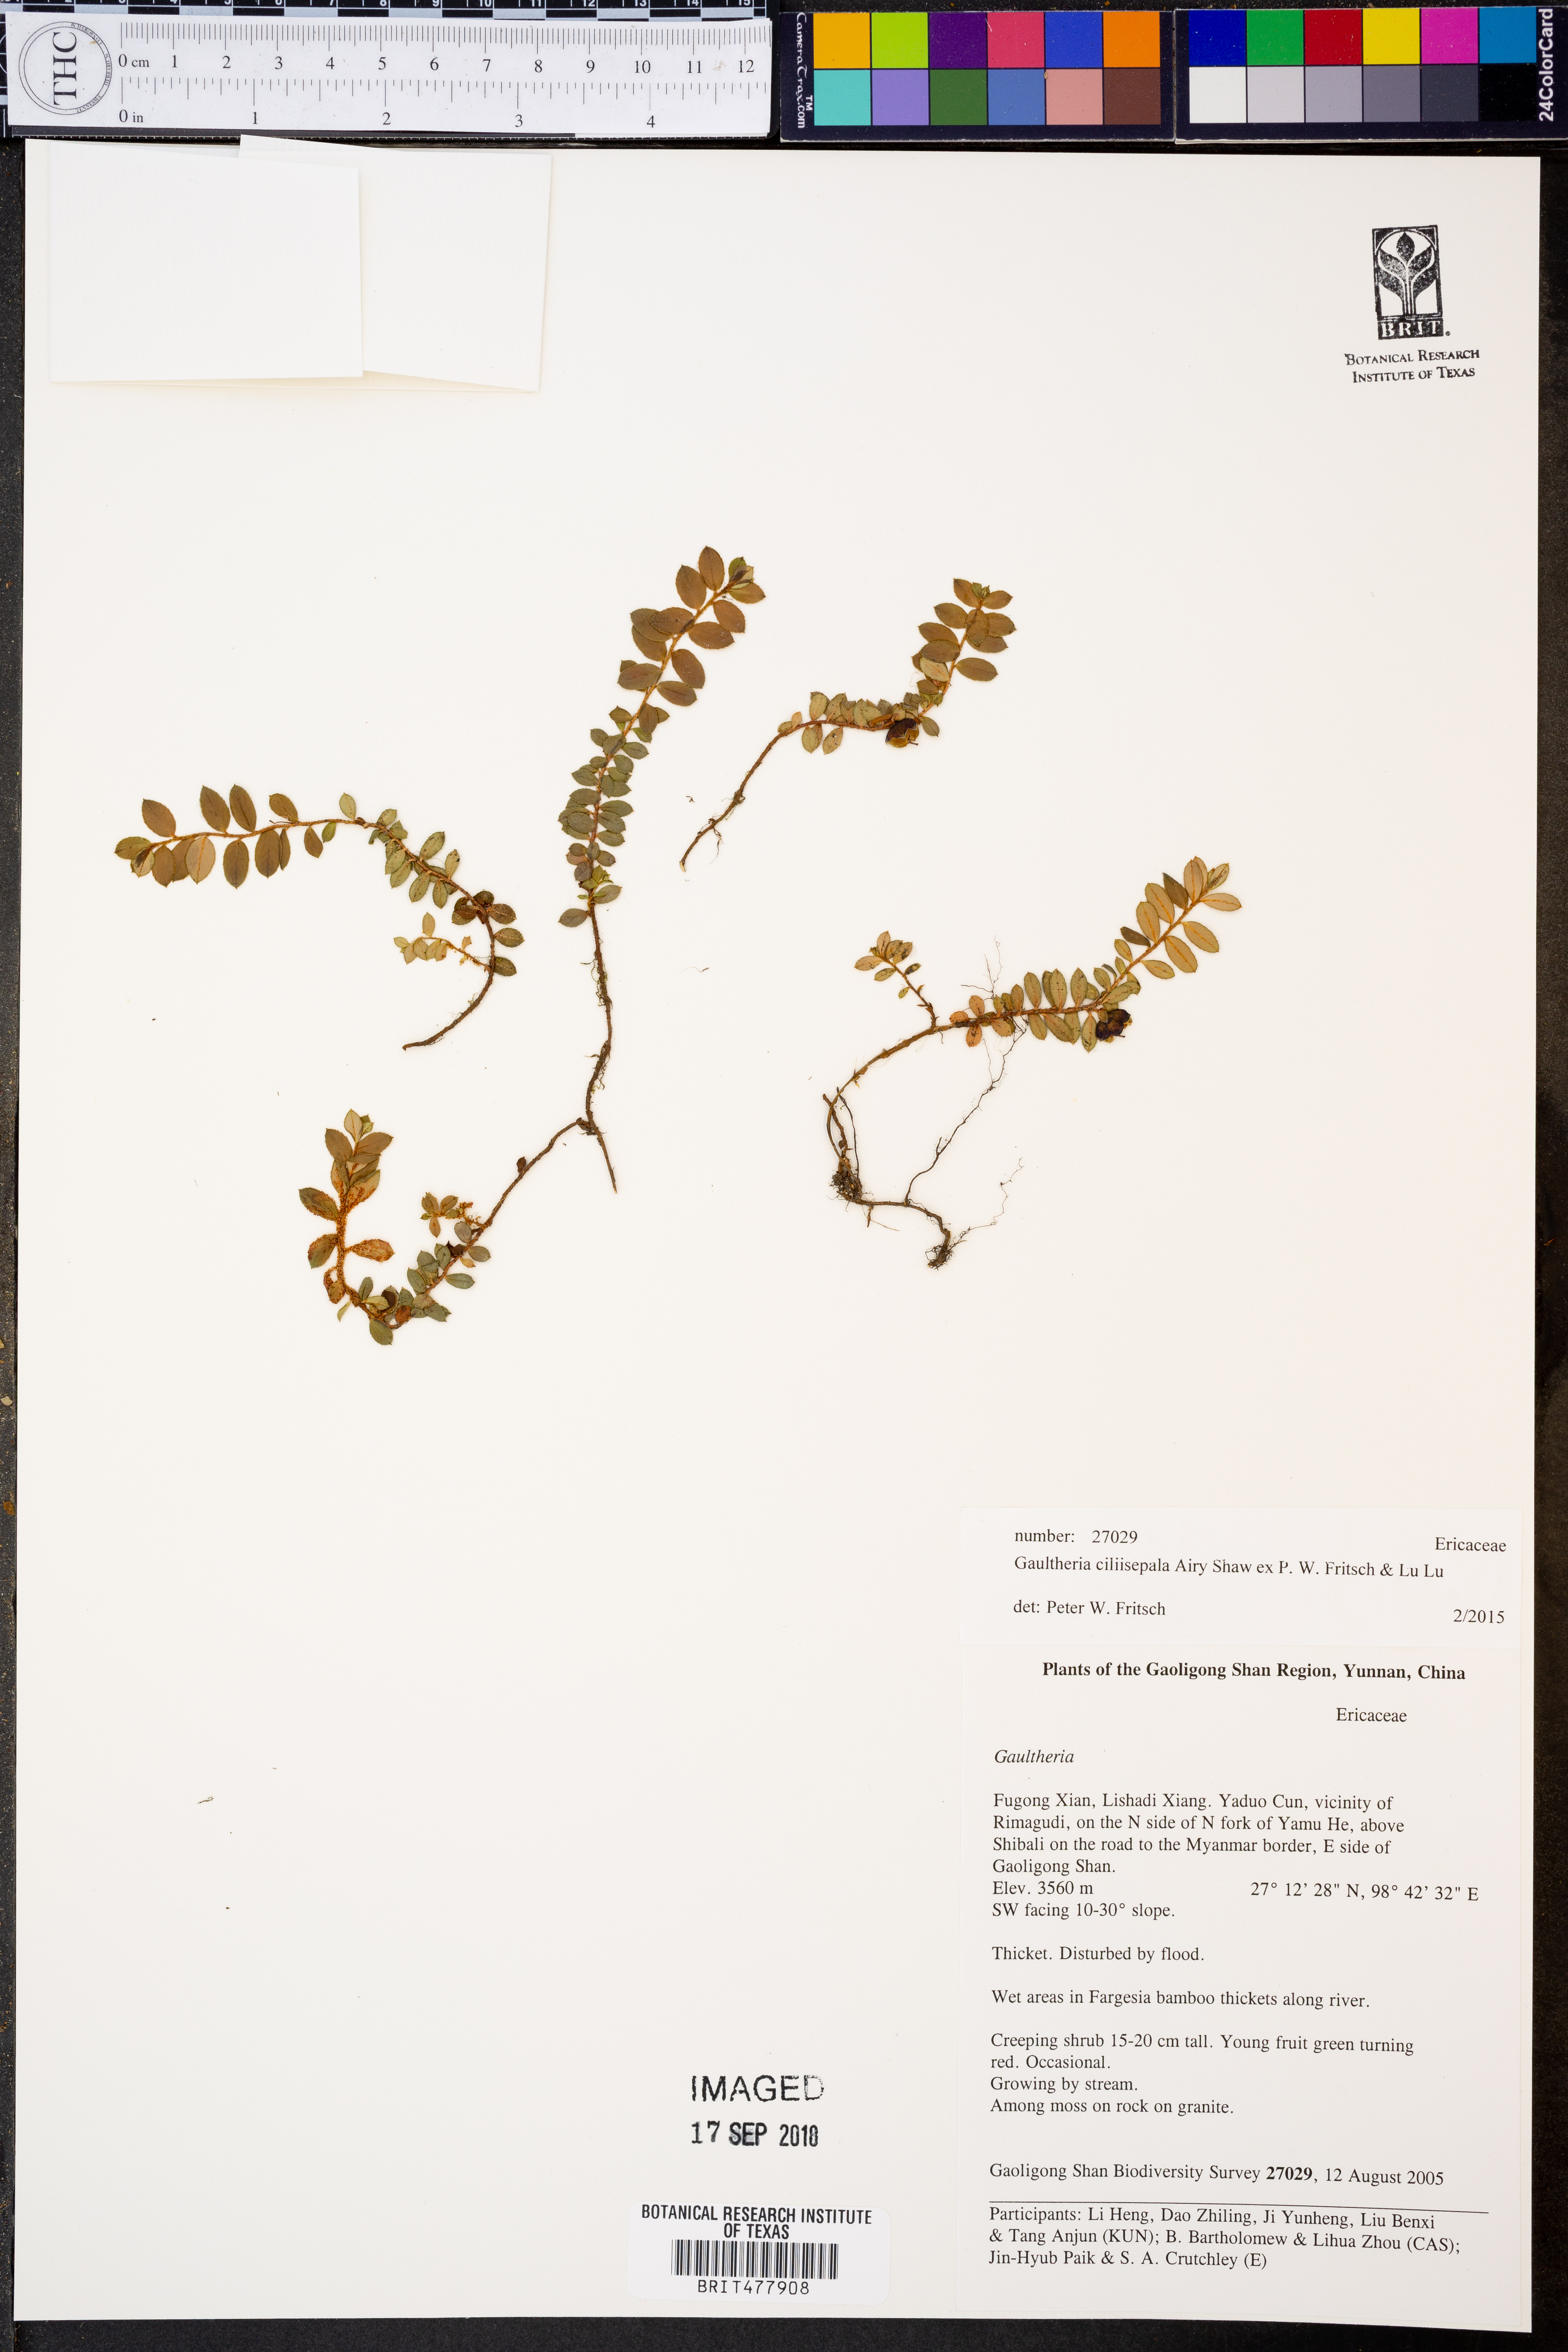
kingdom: Plantae
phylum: Tracheophyta
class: Magnoliopsida
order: Ericales
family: Ericaceae
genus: Gaultheria
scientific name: Gaultheria ciliisepala
